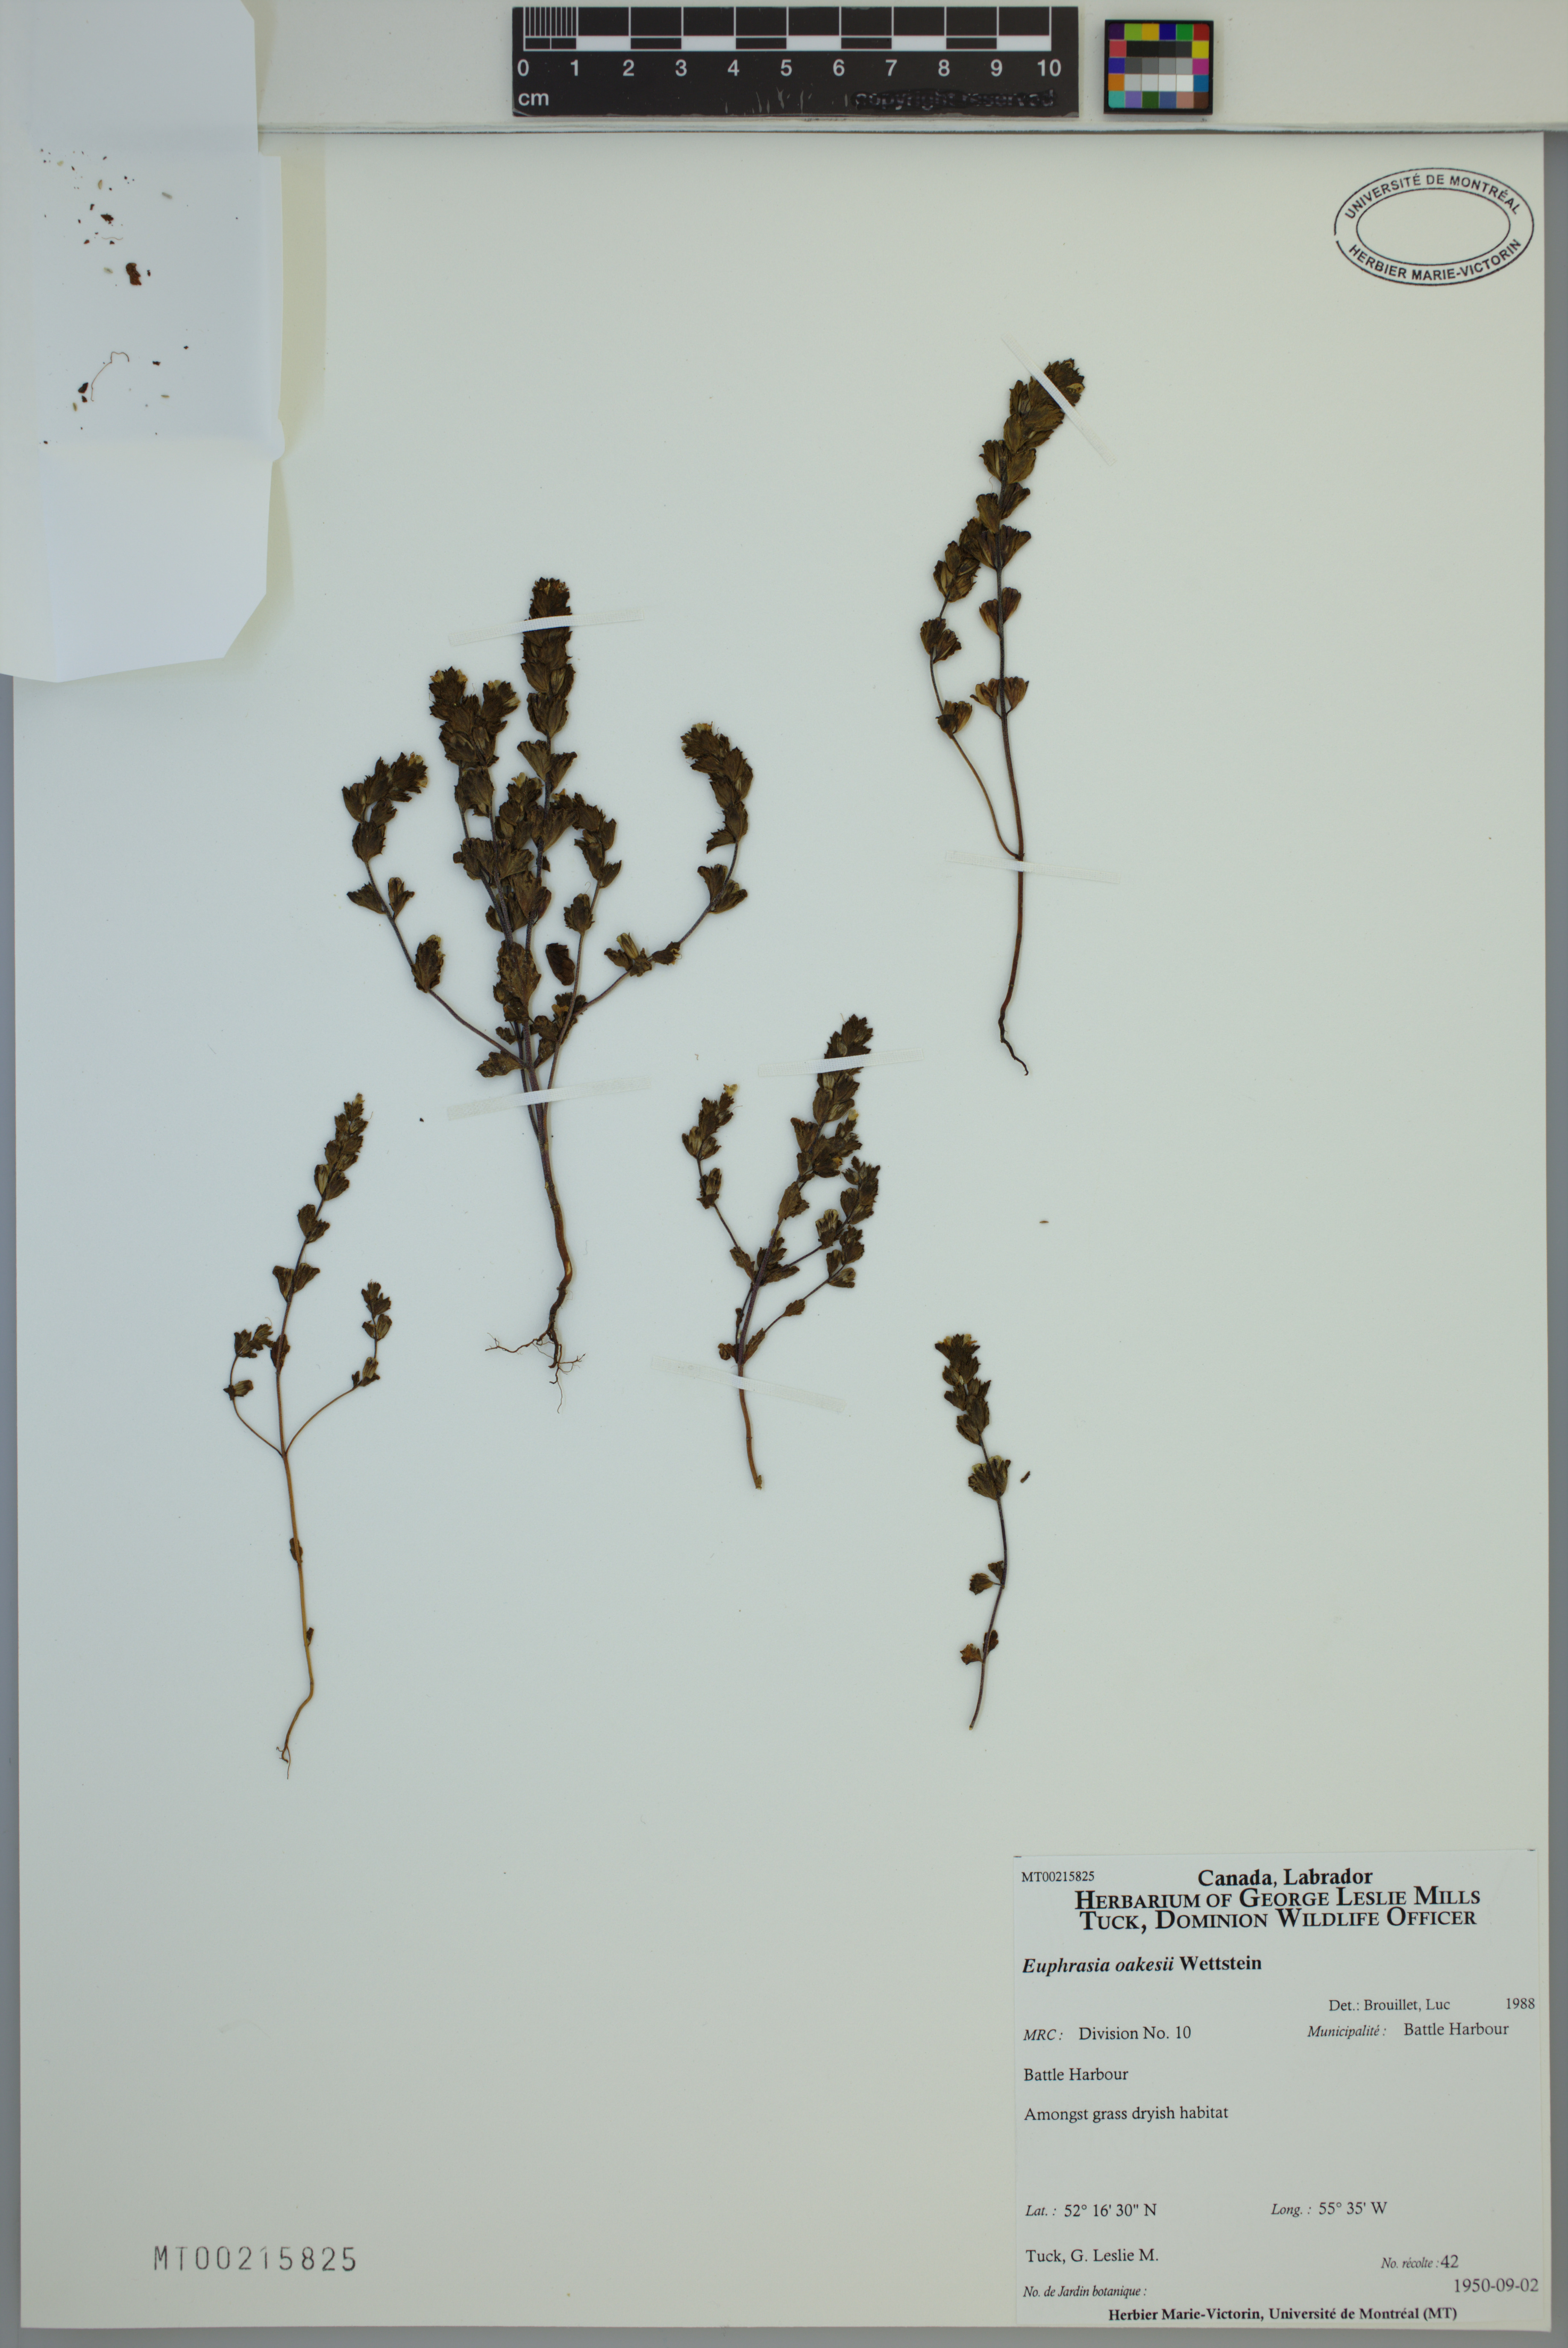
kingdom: Plantae
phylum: Tracheophyta
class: Magnoliopsida
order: Lamiales
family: Orobanchaceae
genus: Euphrasia
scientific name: Euphrasia oakesii
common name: Oakes' eyebright
